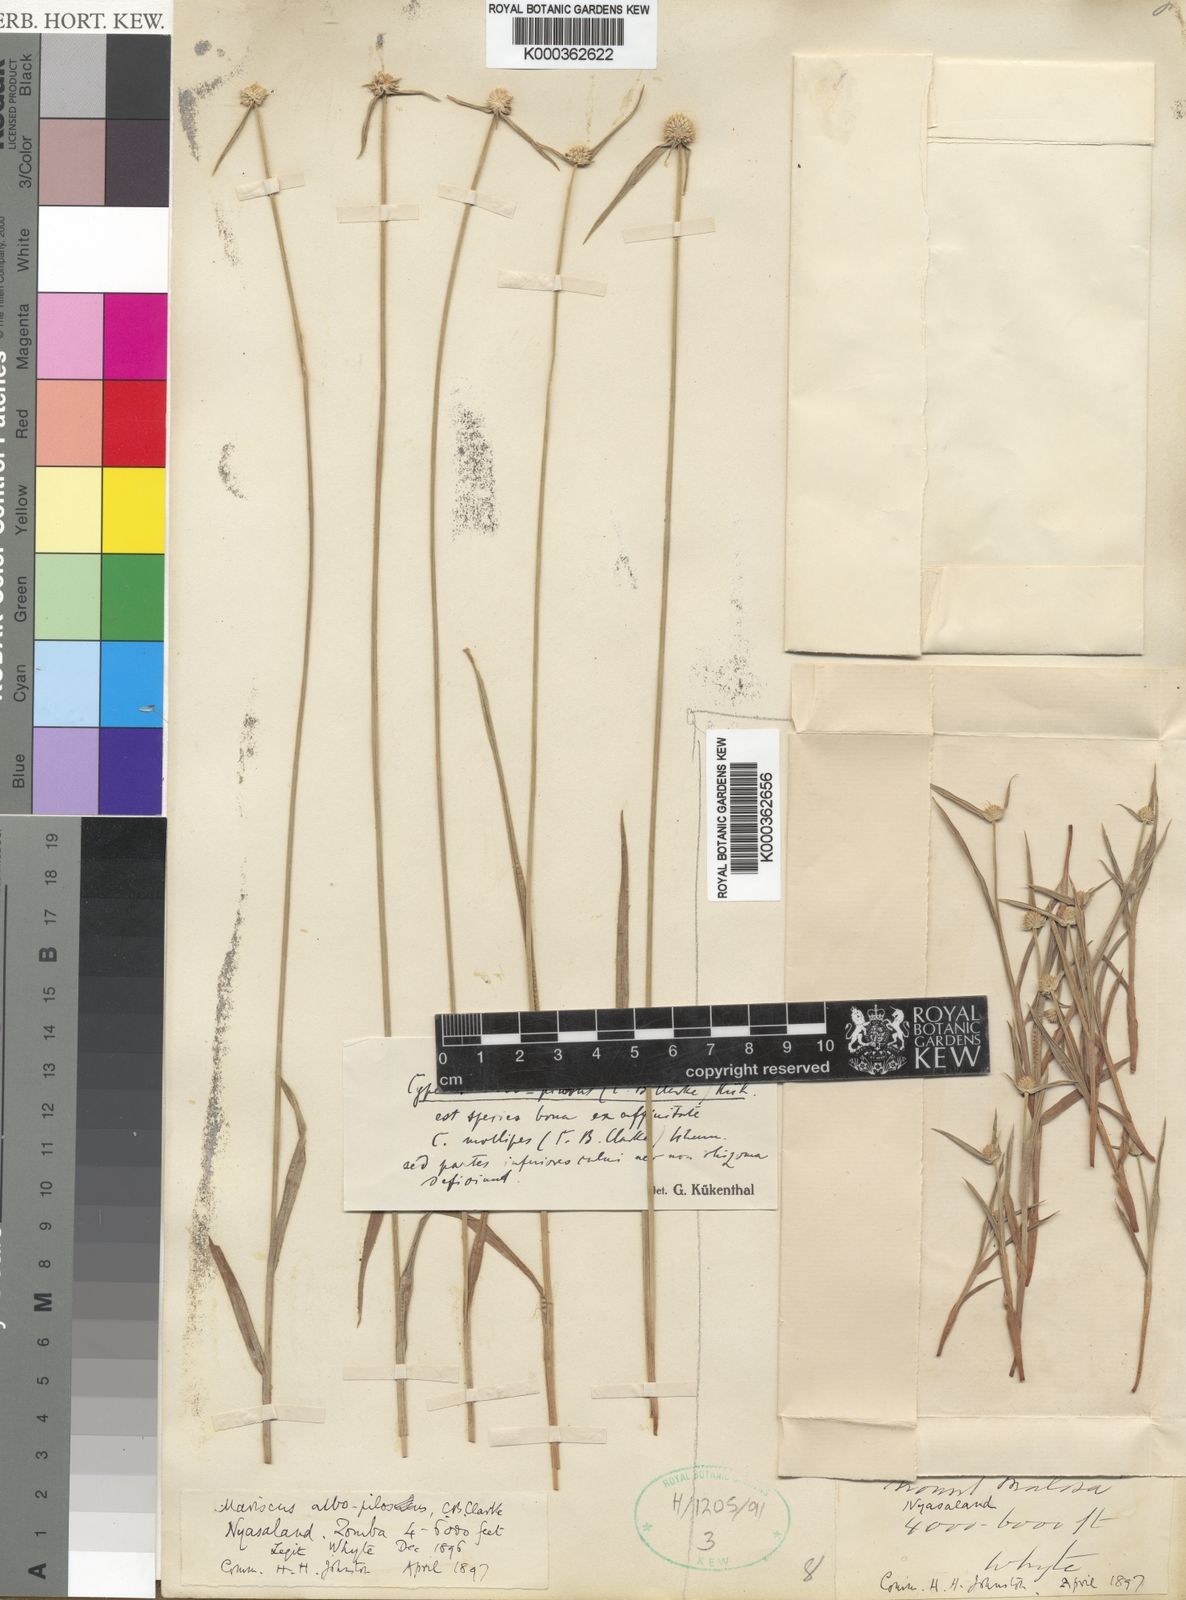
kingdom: Plantae
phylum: Tracheophyta
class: Liliopsida
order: Poales
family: Cyperaceae
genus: Cyperus
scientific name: Cyperus albopilosus
